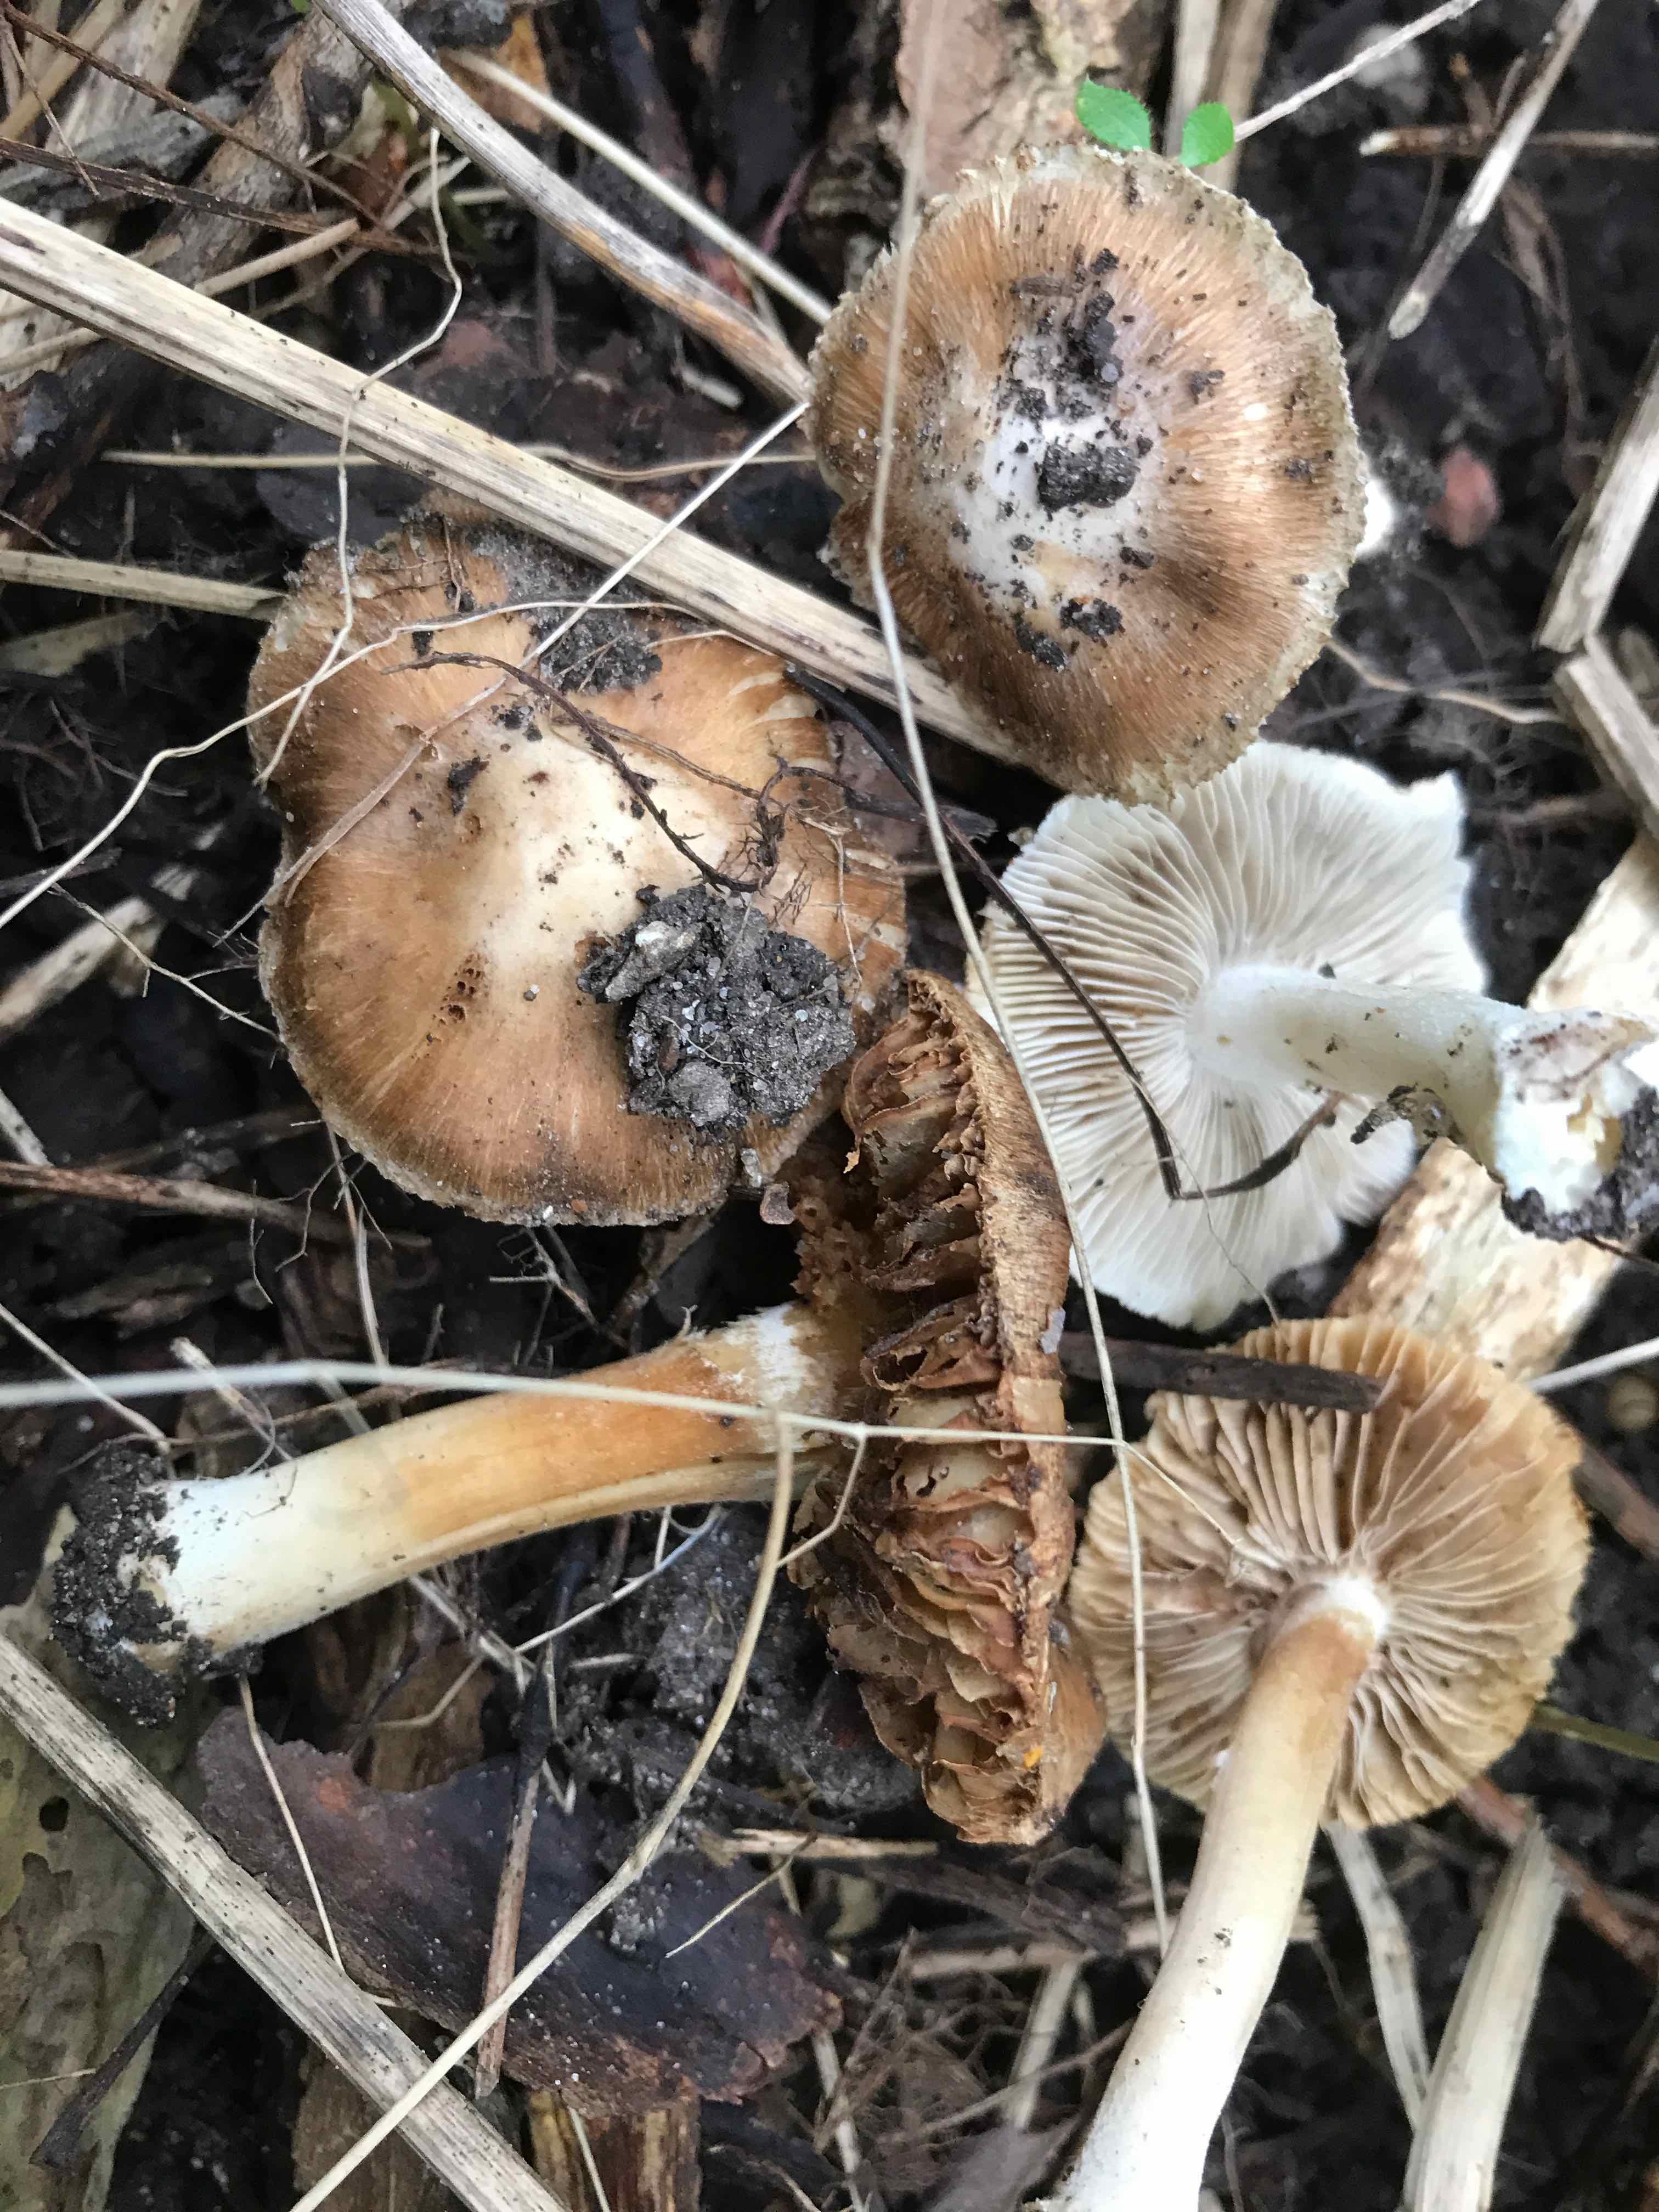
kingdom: Fungi
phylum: Basidiomycota
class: Agaricomycetes
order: Agaricales
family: Inocybaceae
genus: Inosperma
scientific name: Inosperma
